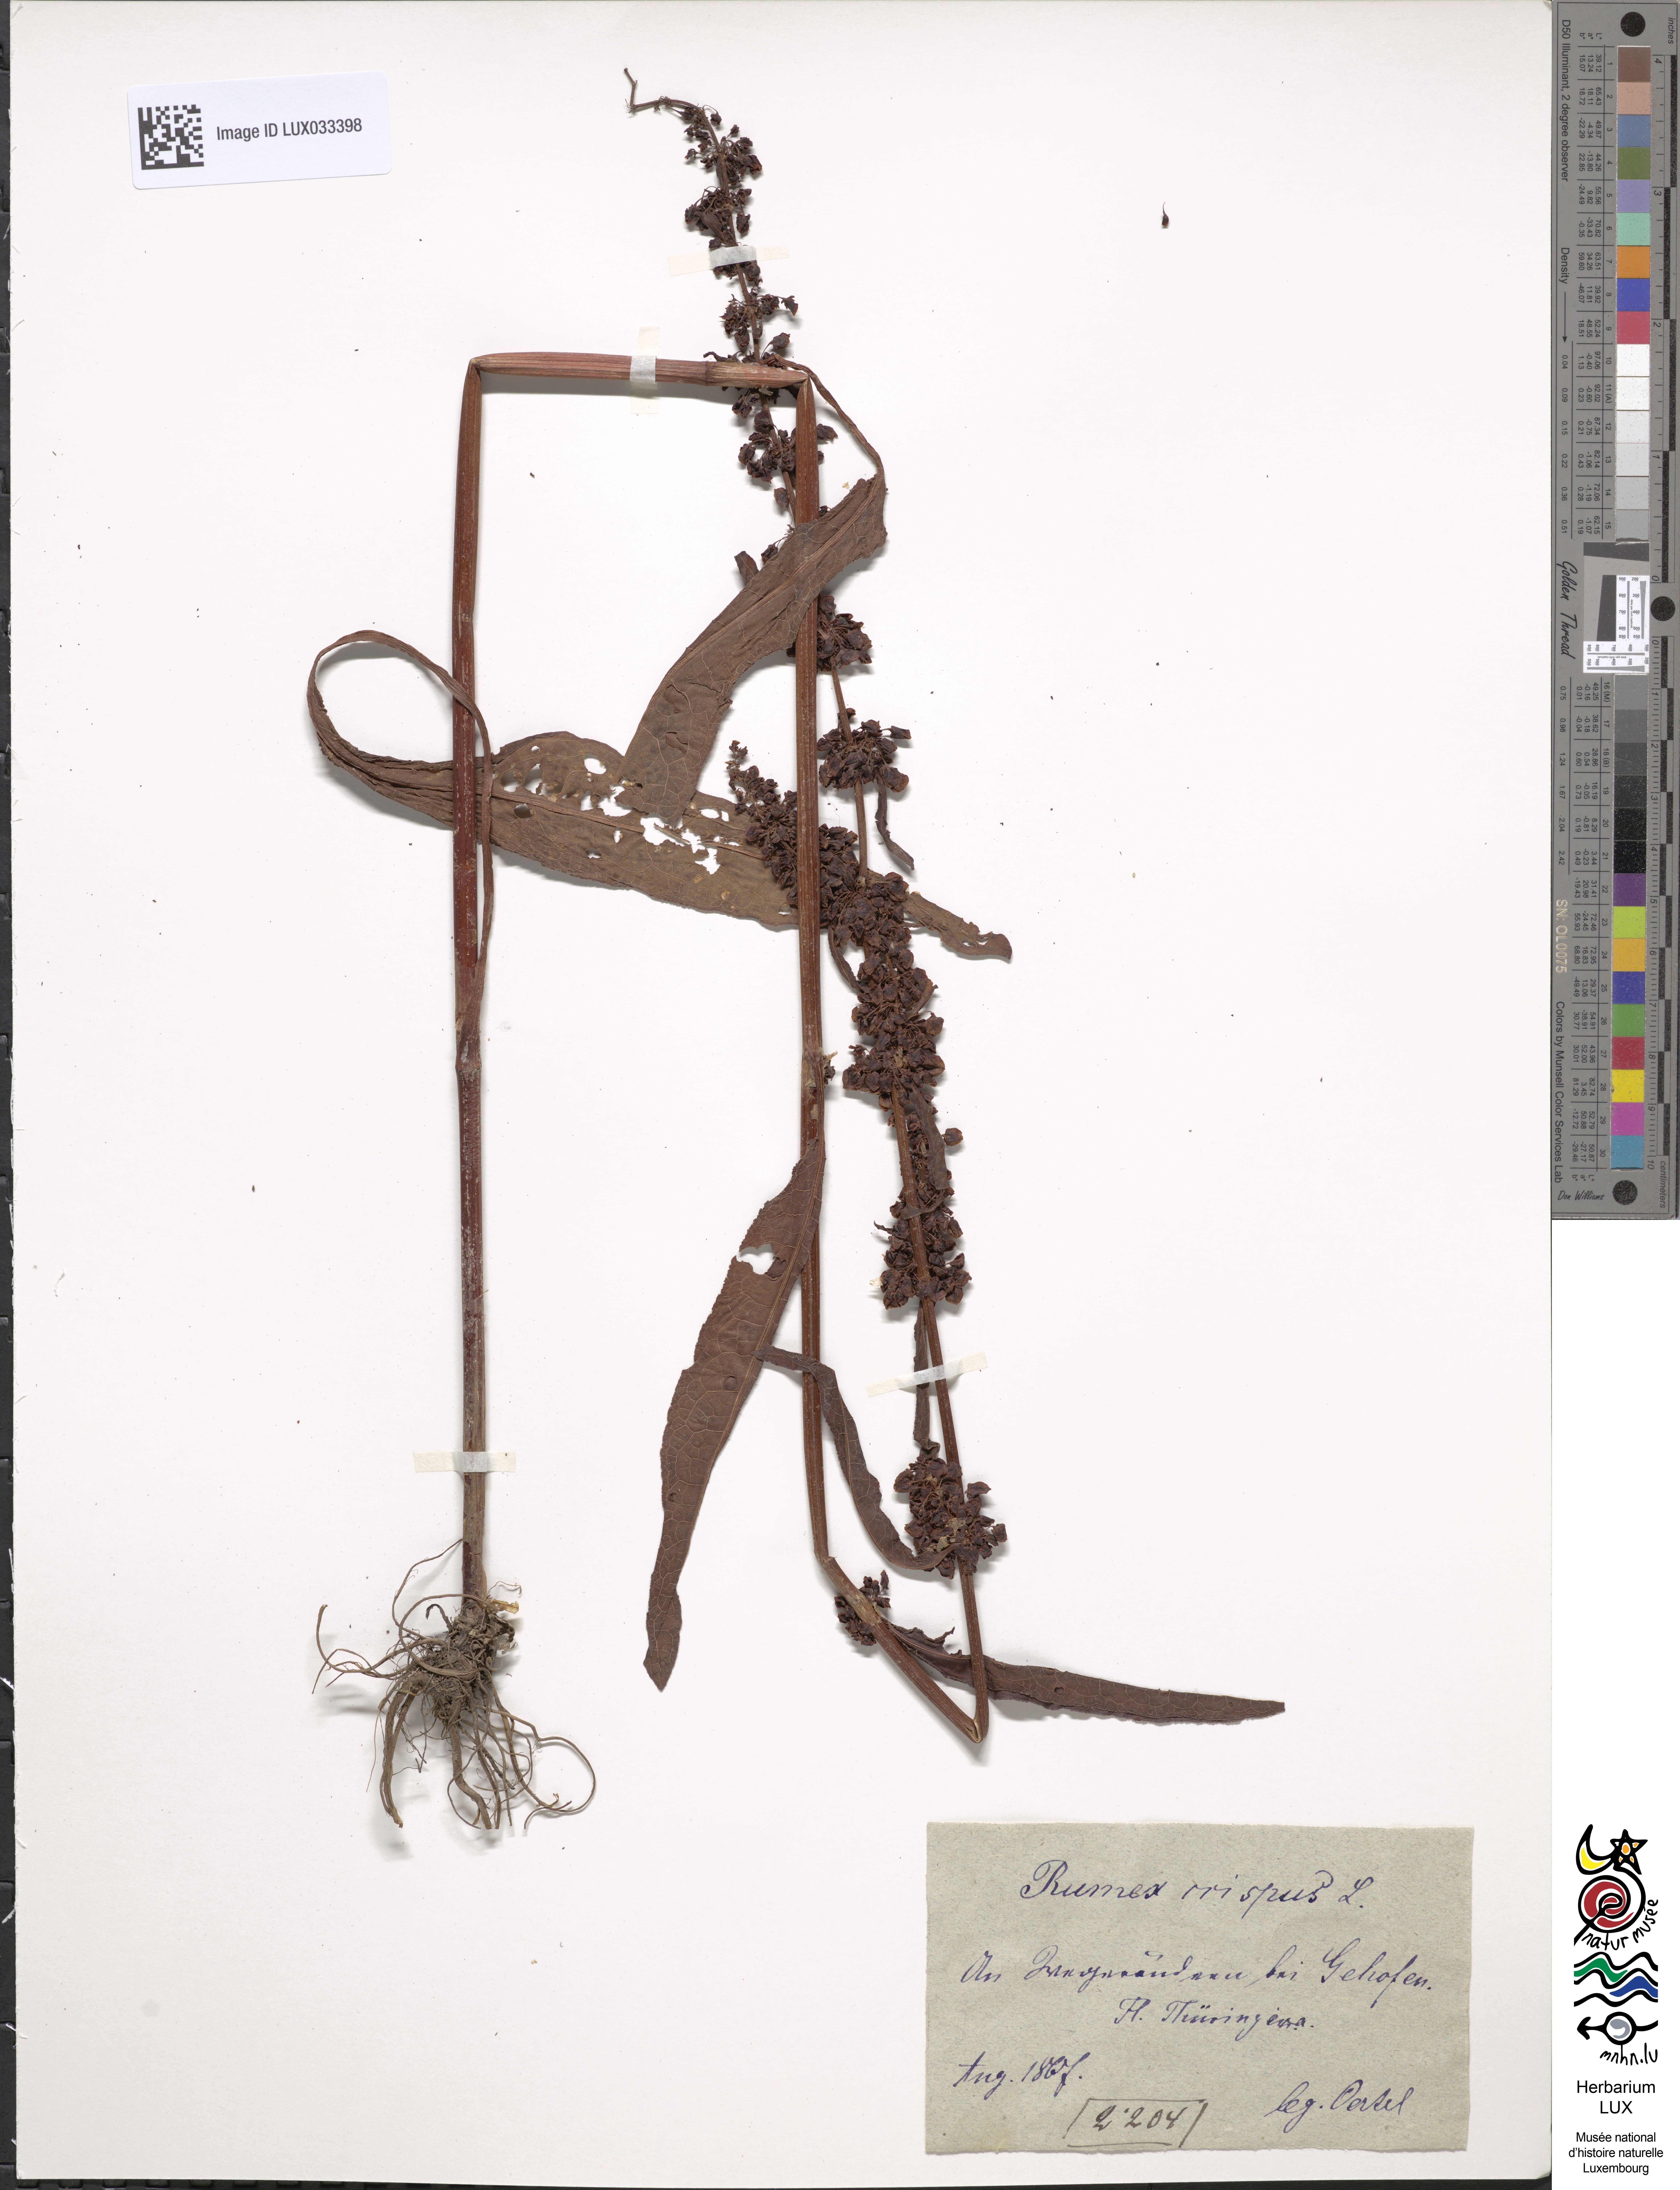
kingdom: Plantae
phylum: Tracheophyta
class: Magnoliopsida
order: Caryophyllales
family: Polygonaceae
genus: Rumex
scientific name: Rumex crispus
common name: Curled dock
